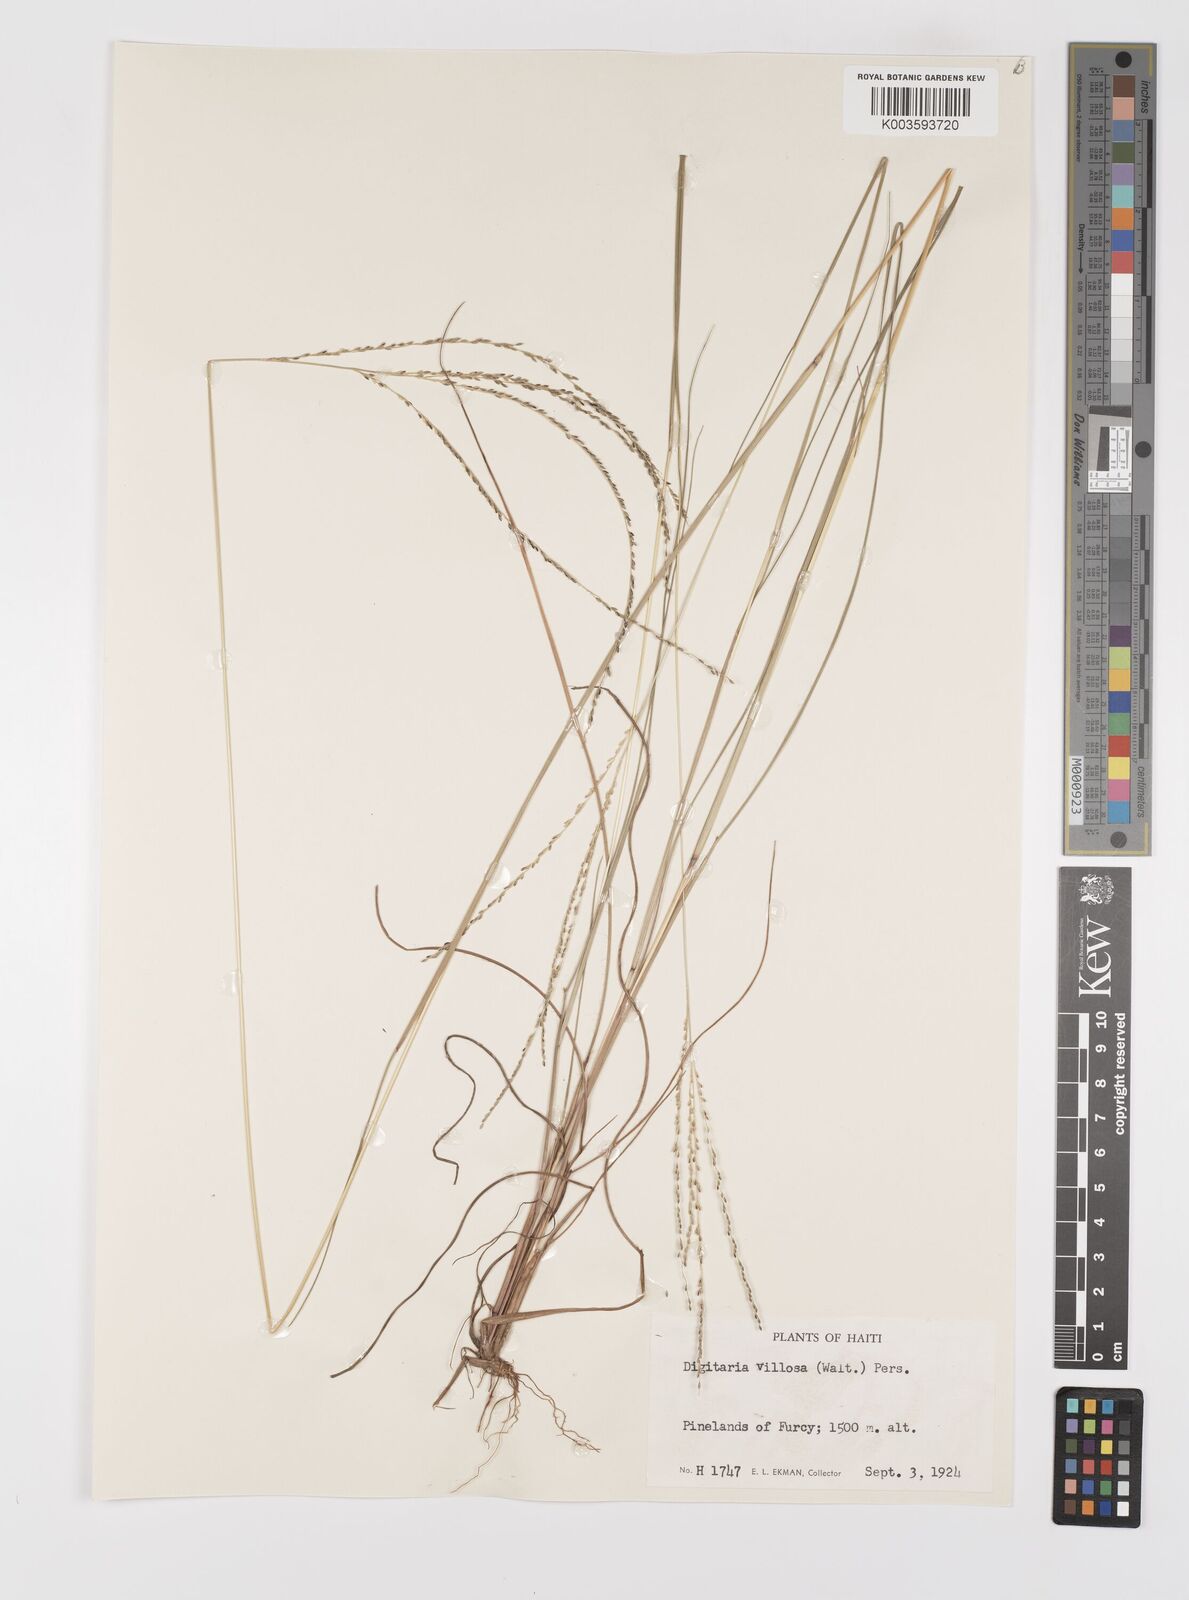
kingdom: Plantae
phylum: Tracheophyta
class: Liliopsida
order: Poales
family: Poaceae
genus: Digitaria
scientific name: Digitaria villosa
